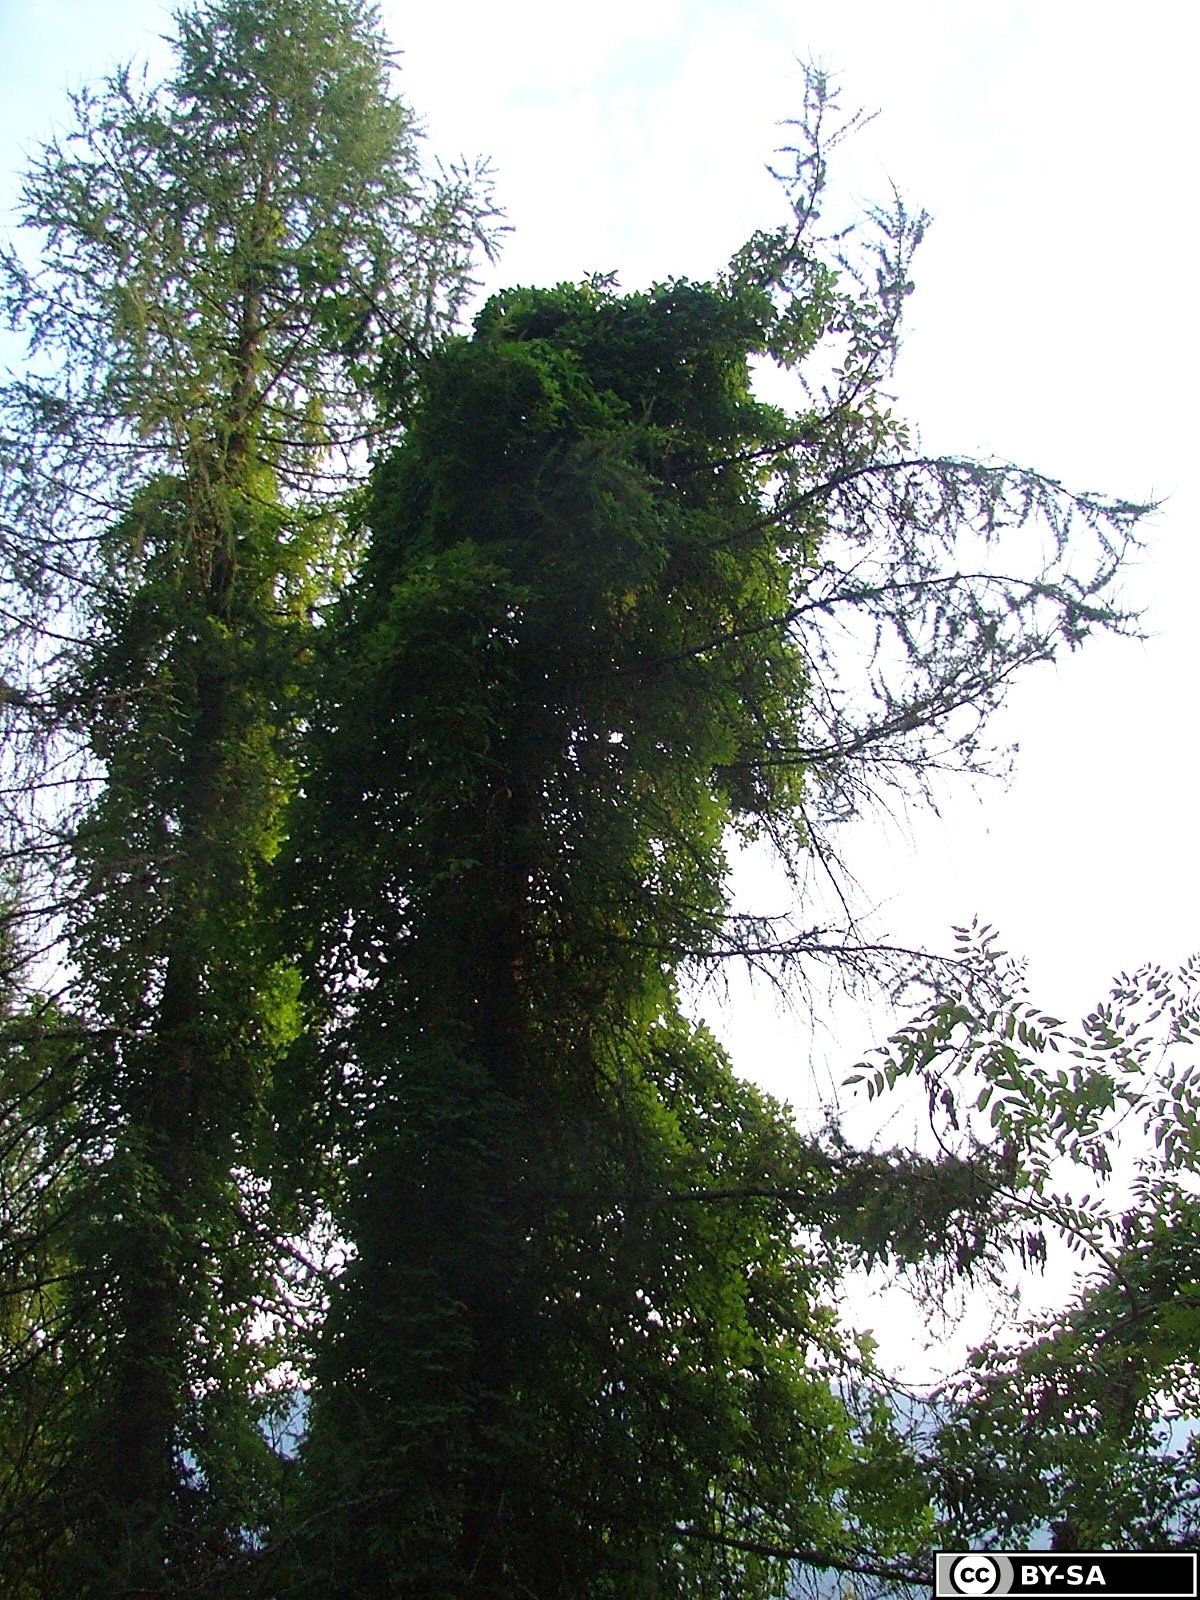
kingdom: Plantae
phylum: Tracheophyta
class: Magnoliopsida
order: Ranunculales
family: Lardizabalaceae
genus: Akebia
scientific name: Akebia quinata
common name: Five-leaf akebia
